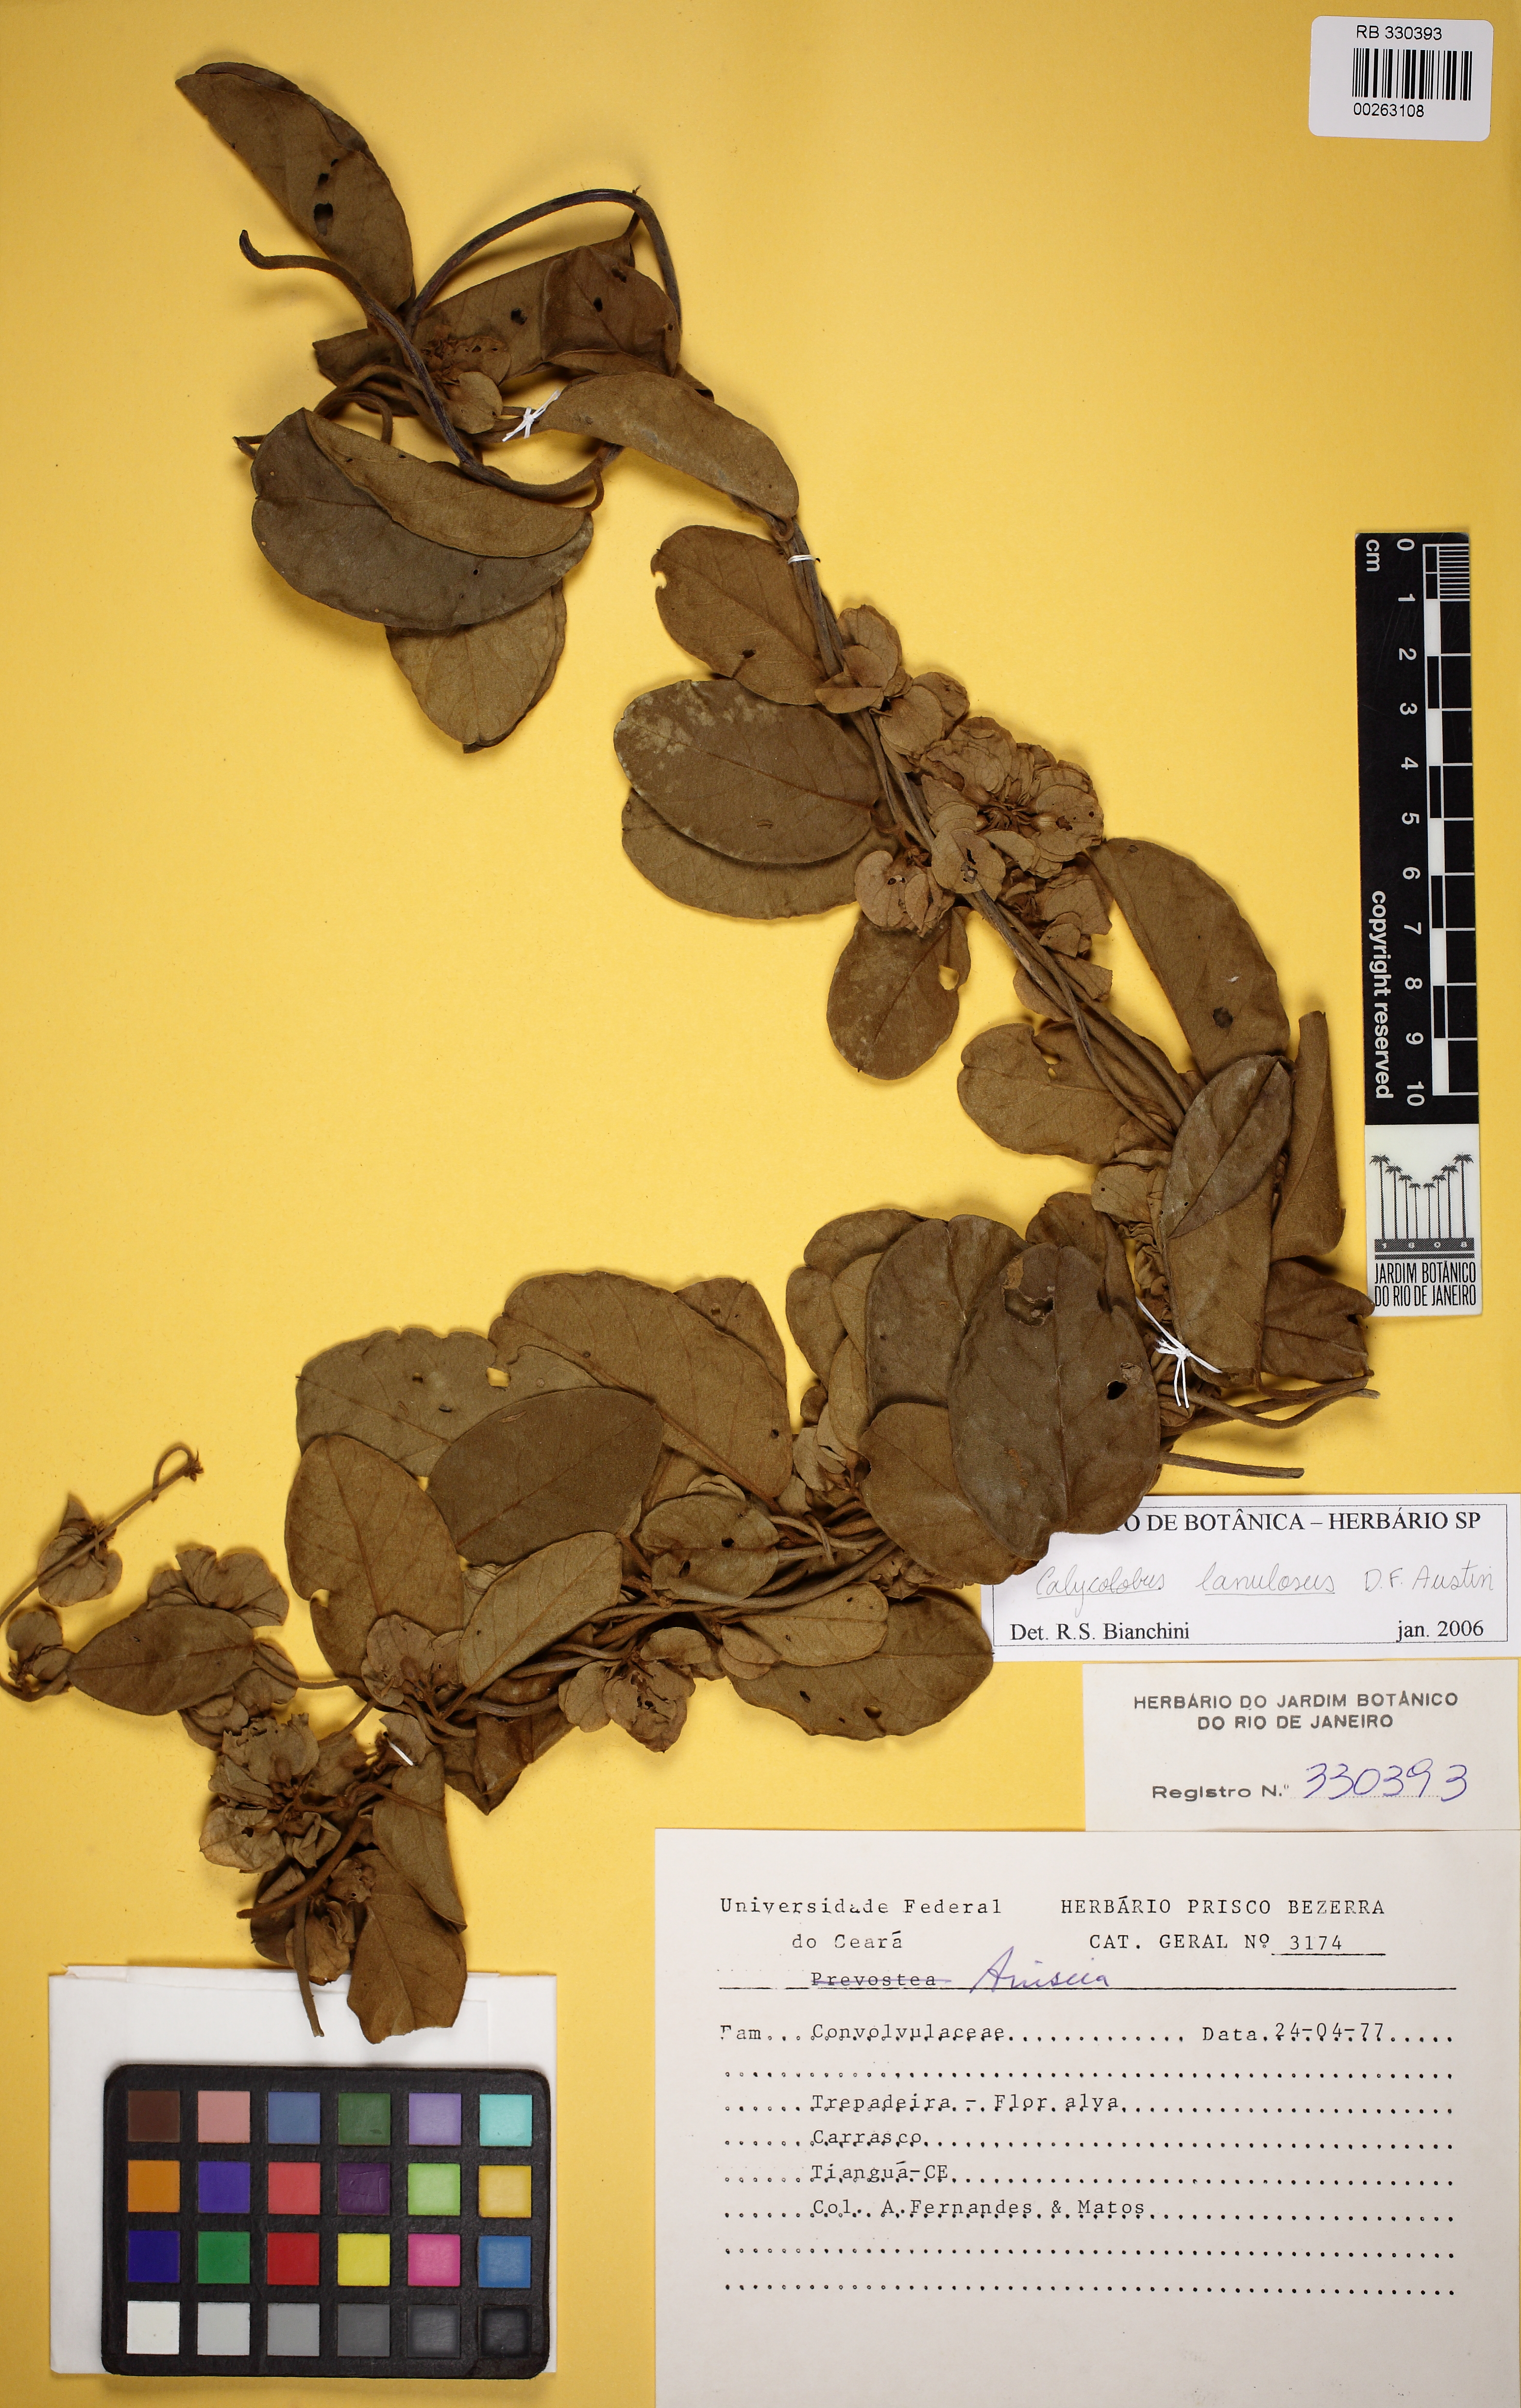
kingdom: Plantae
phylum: Tracheophyta
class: Magnoliopsida
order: Solanales
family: Convolvulaceae
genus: Calycobolus
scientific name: Calycobolus lanulosus
